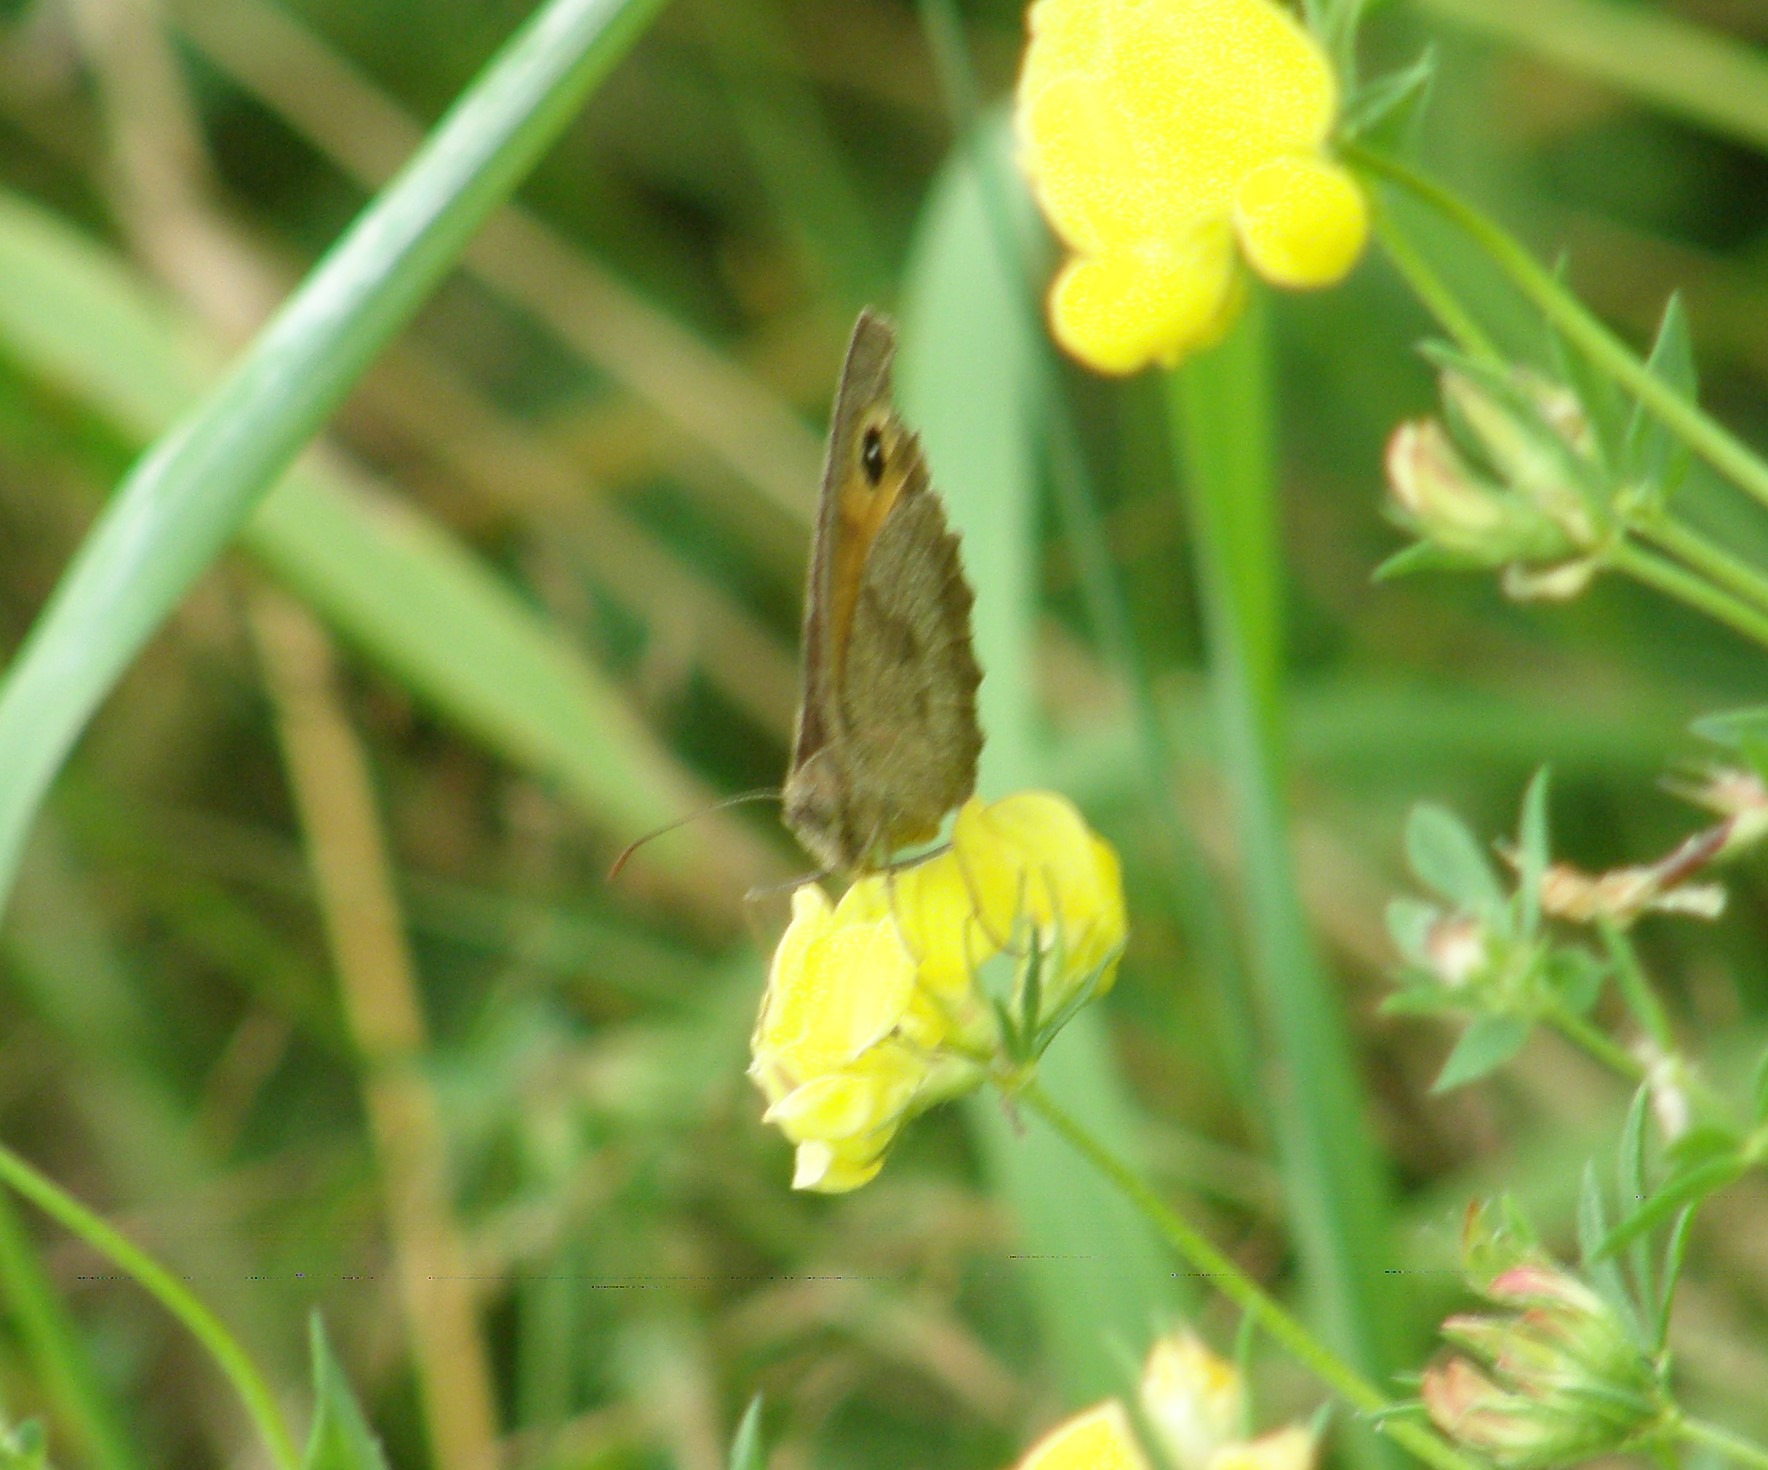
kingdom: Animalia
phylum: Arthropoda
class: Insecta
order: Lepidoptera
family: Nymphalidae
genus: Maniola
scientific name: Maniola jurtina
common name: Græsrandøje
